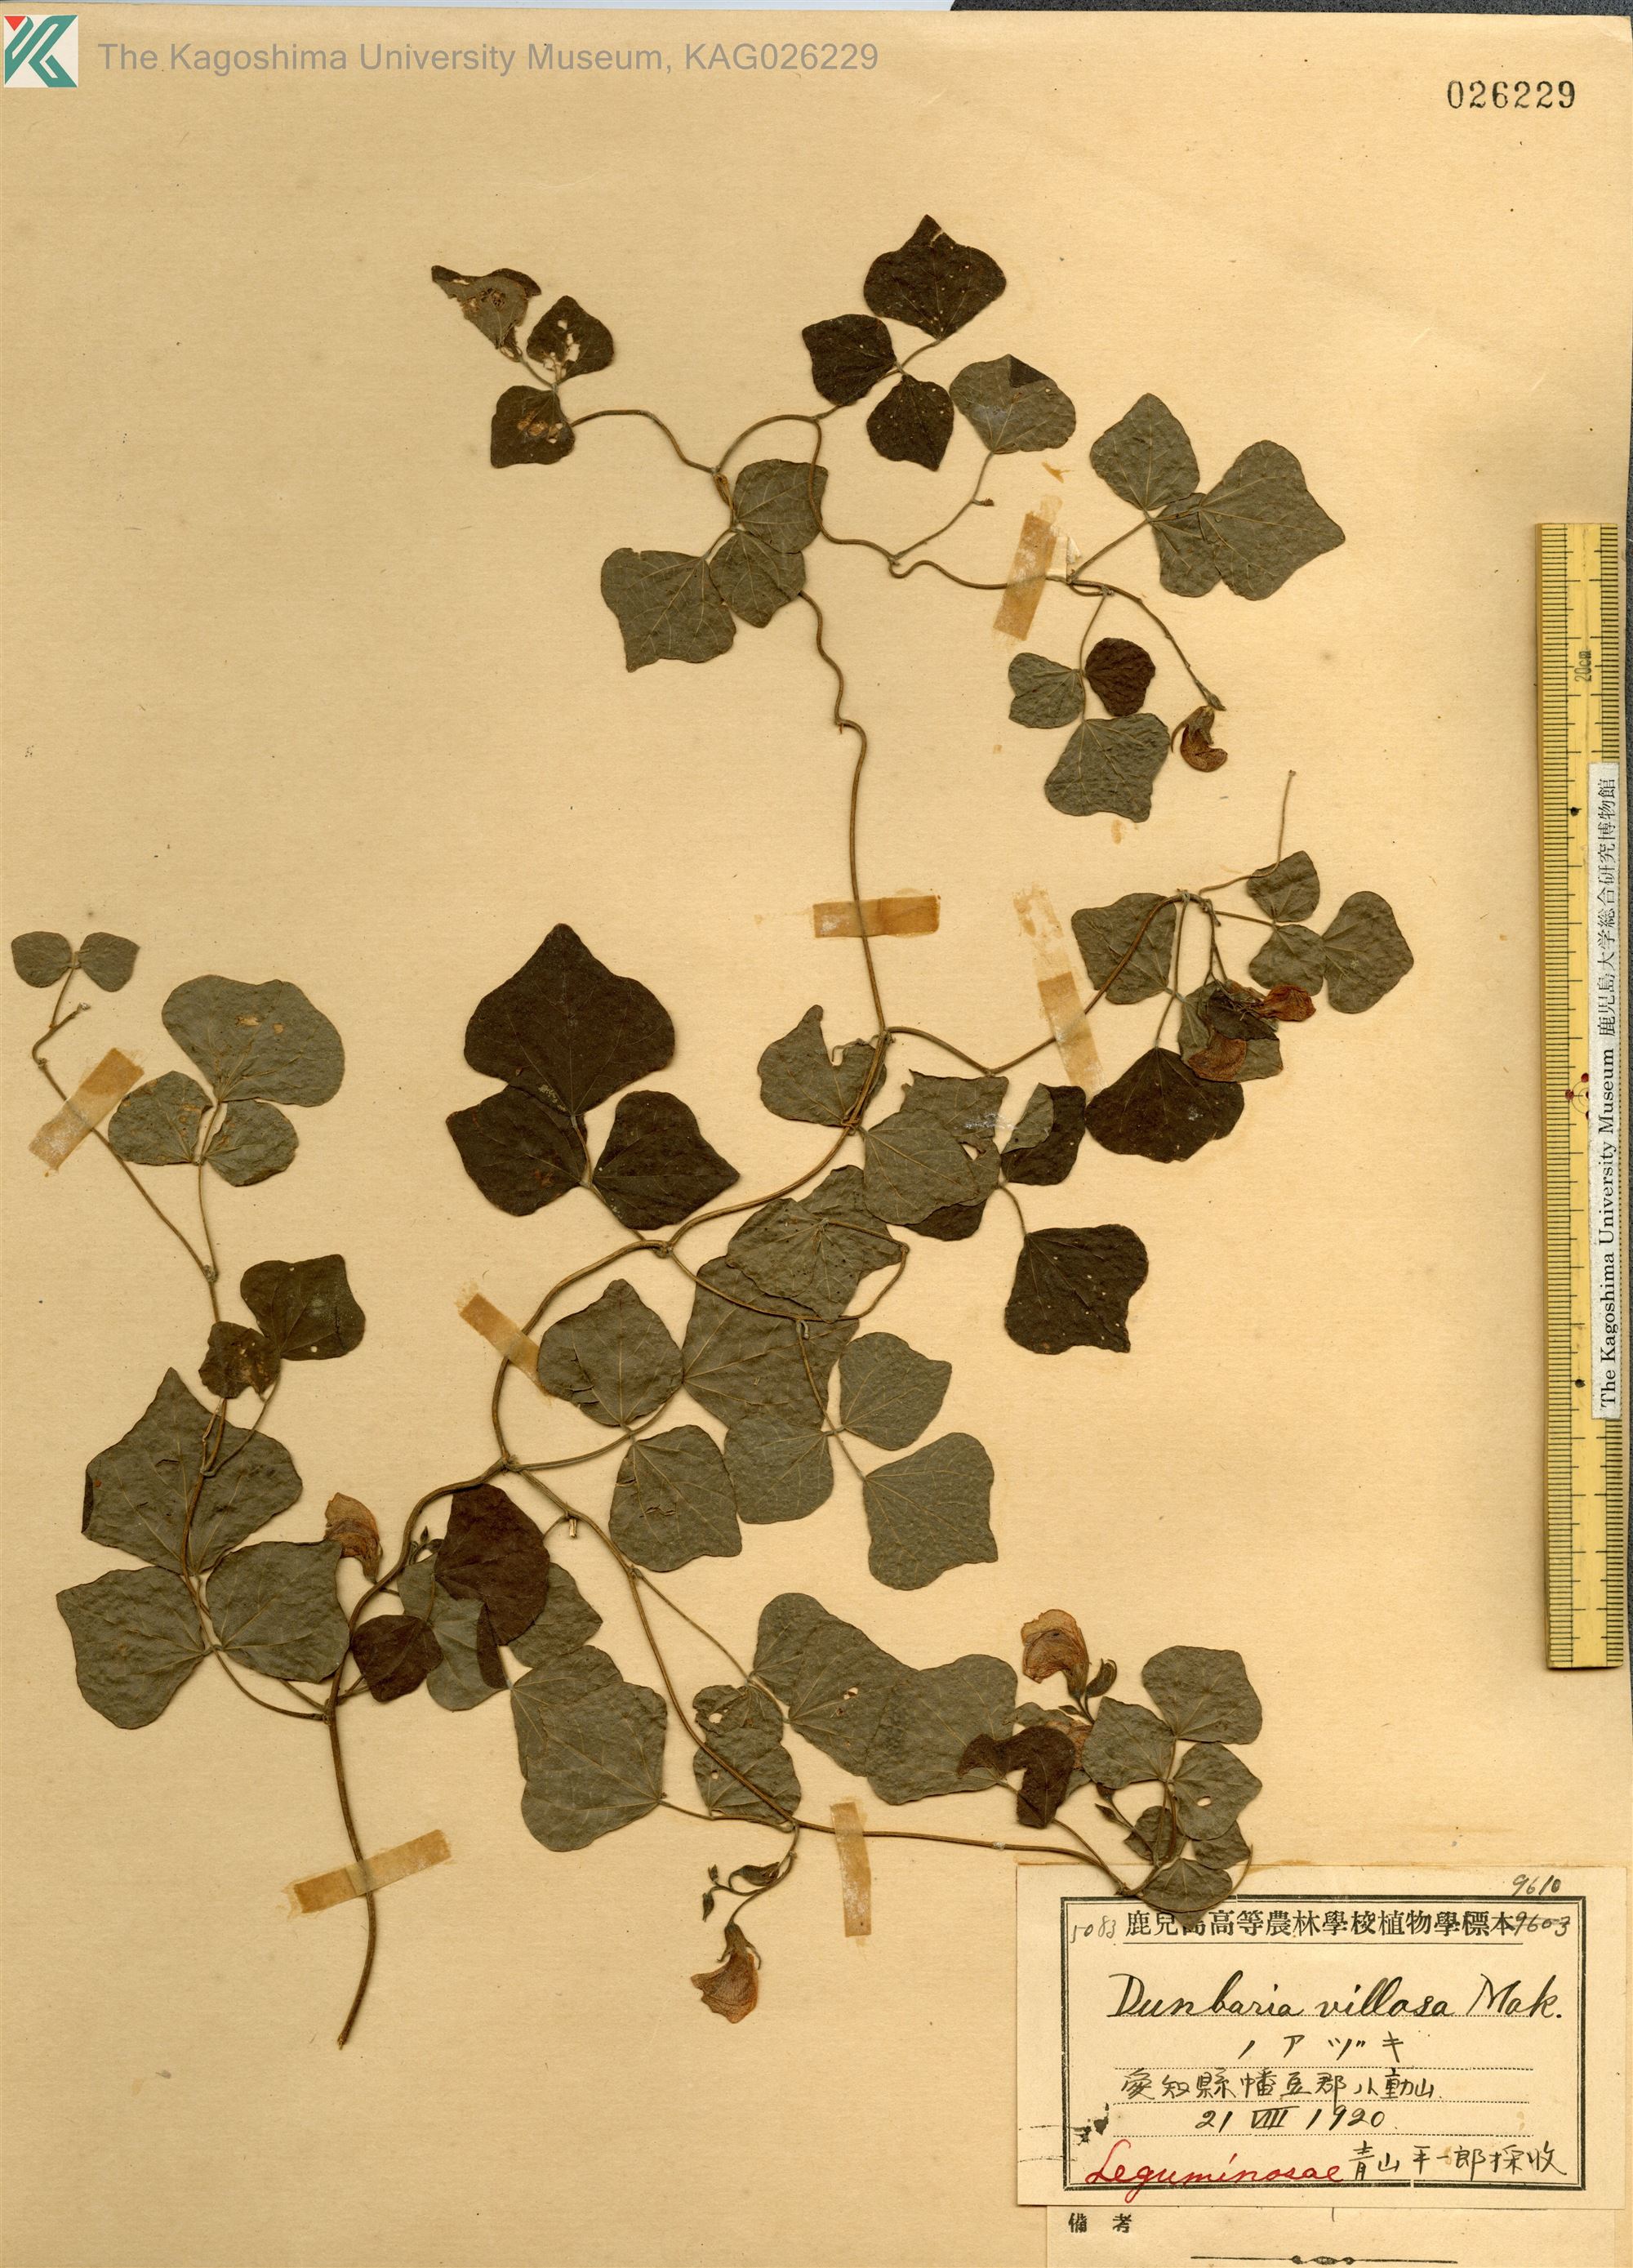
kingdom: Plantae
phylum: Tracheophyta
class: Magnoliopsida
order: Fabales
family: Fabaceae
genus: Dunbaria
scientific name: Dunbaria villosa
